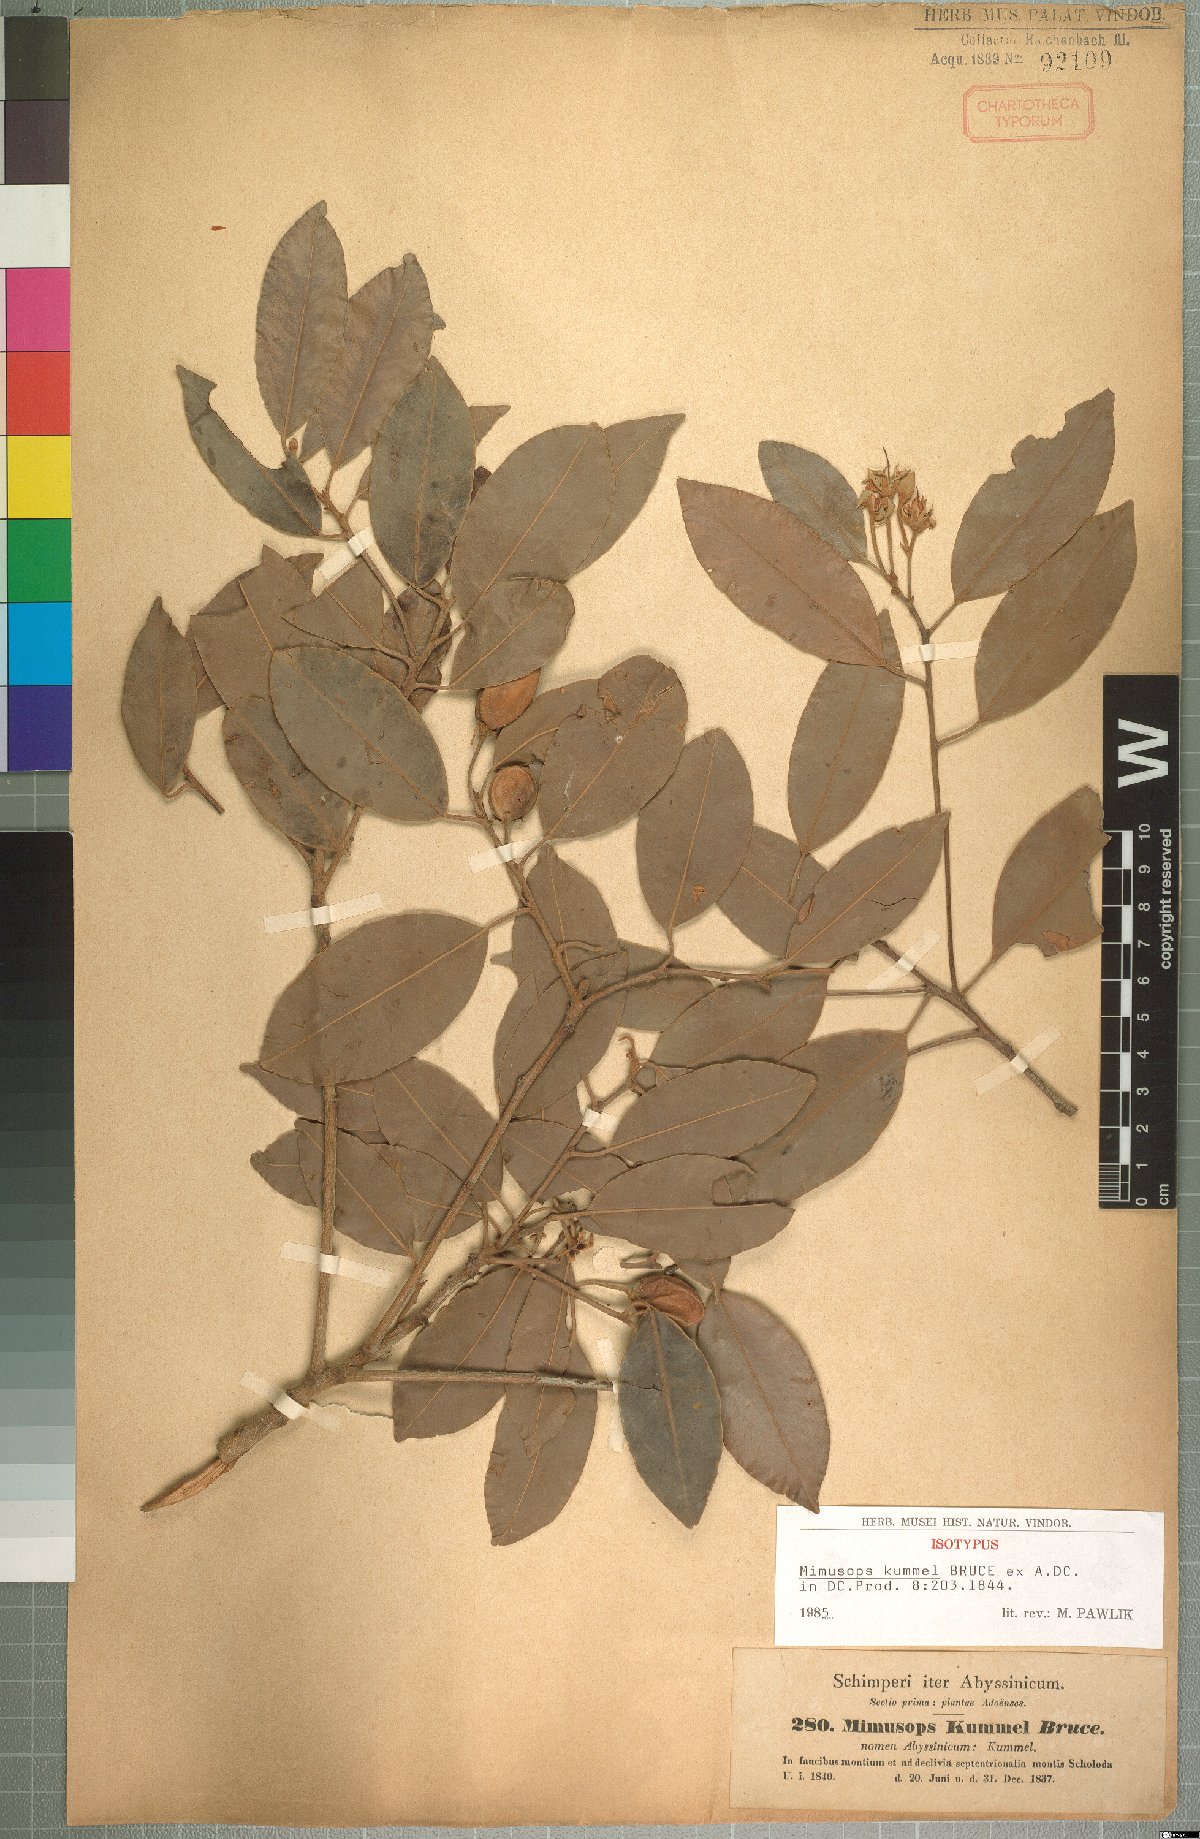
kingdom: Plantae
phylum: Tracheophyta
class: Magnoliopsida
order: Ericales
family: Sapotaceae
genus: Mimusops
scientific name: Mimusops kummel
